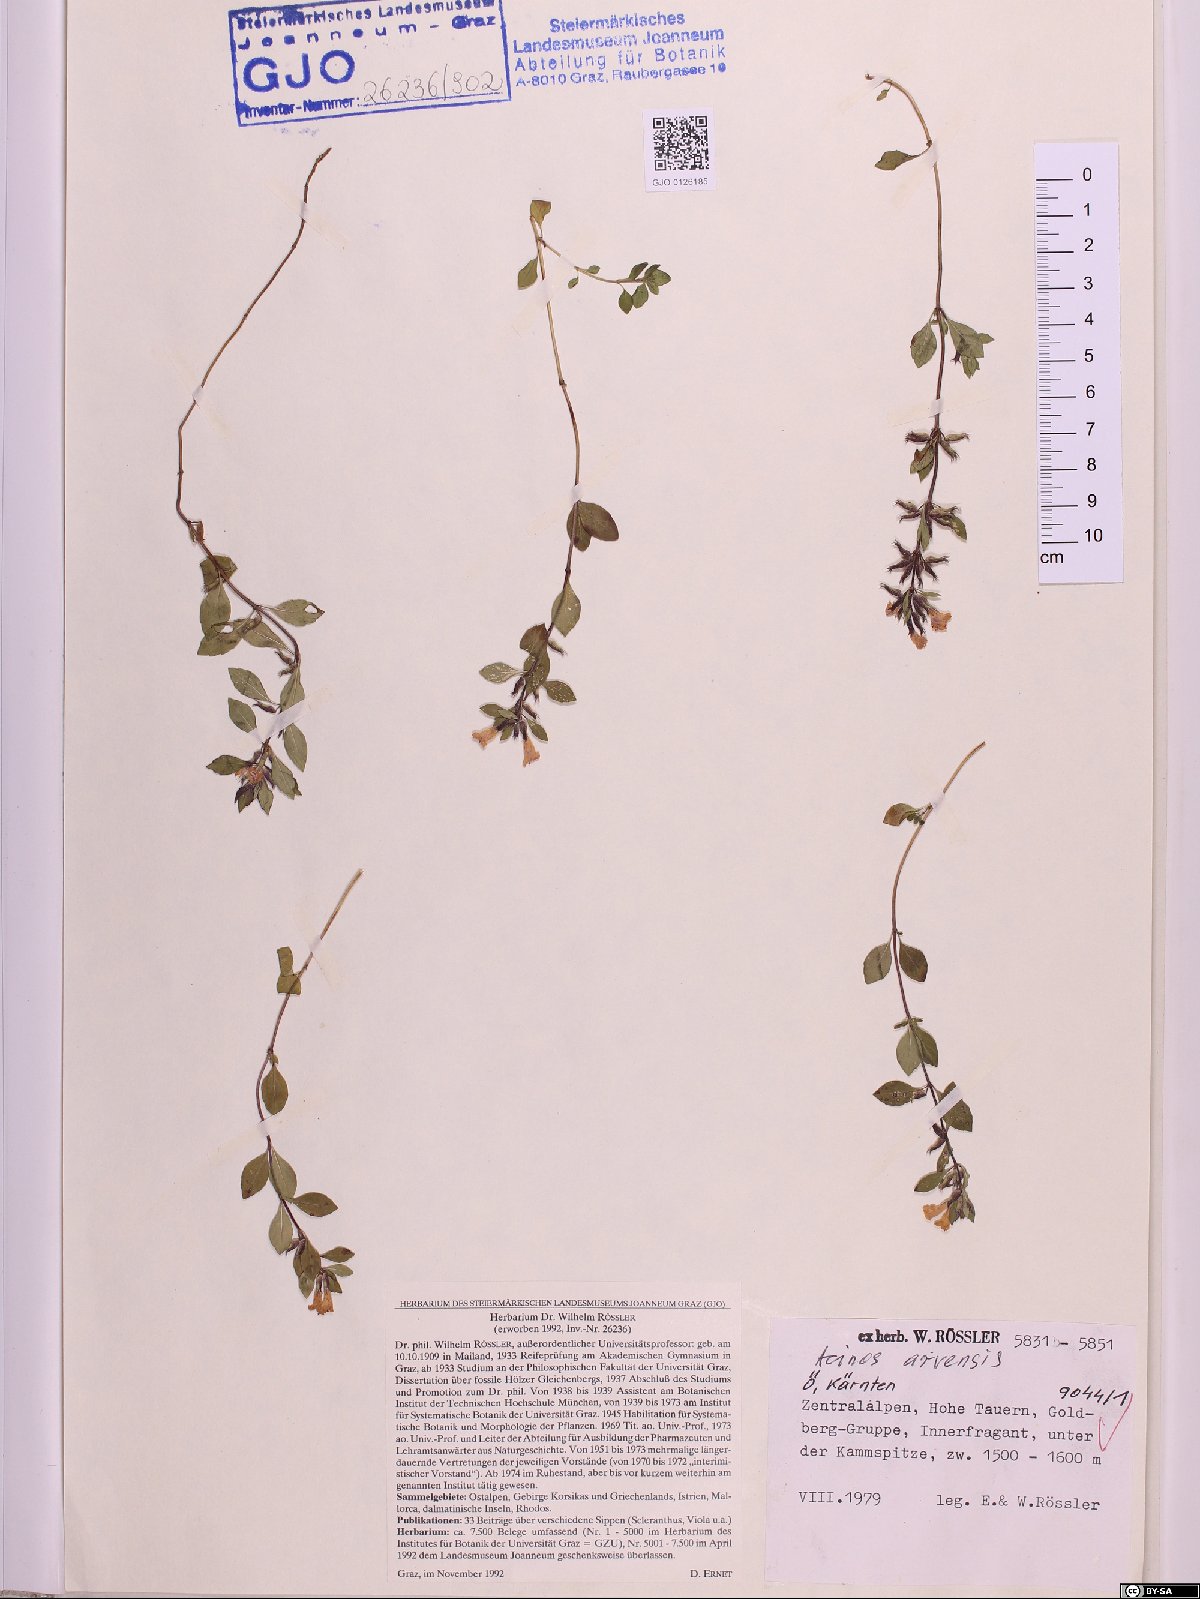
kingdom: Plantae
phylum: Tracheophyta
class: Magnoliopsida
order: Lamiales
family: Lamiaceae
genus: Clinopodium
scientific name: Clinopodium acinos
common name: Basil thyme
